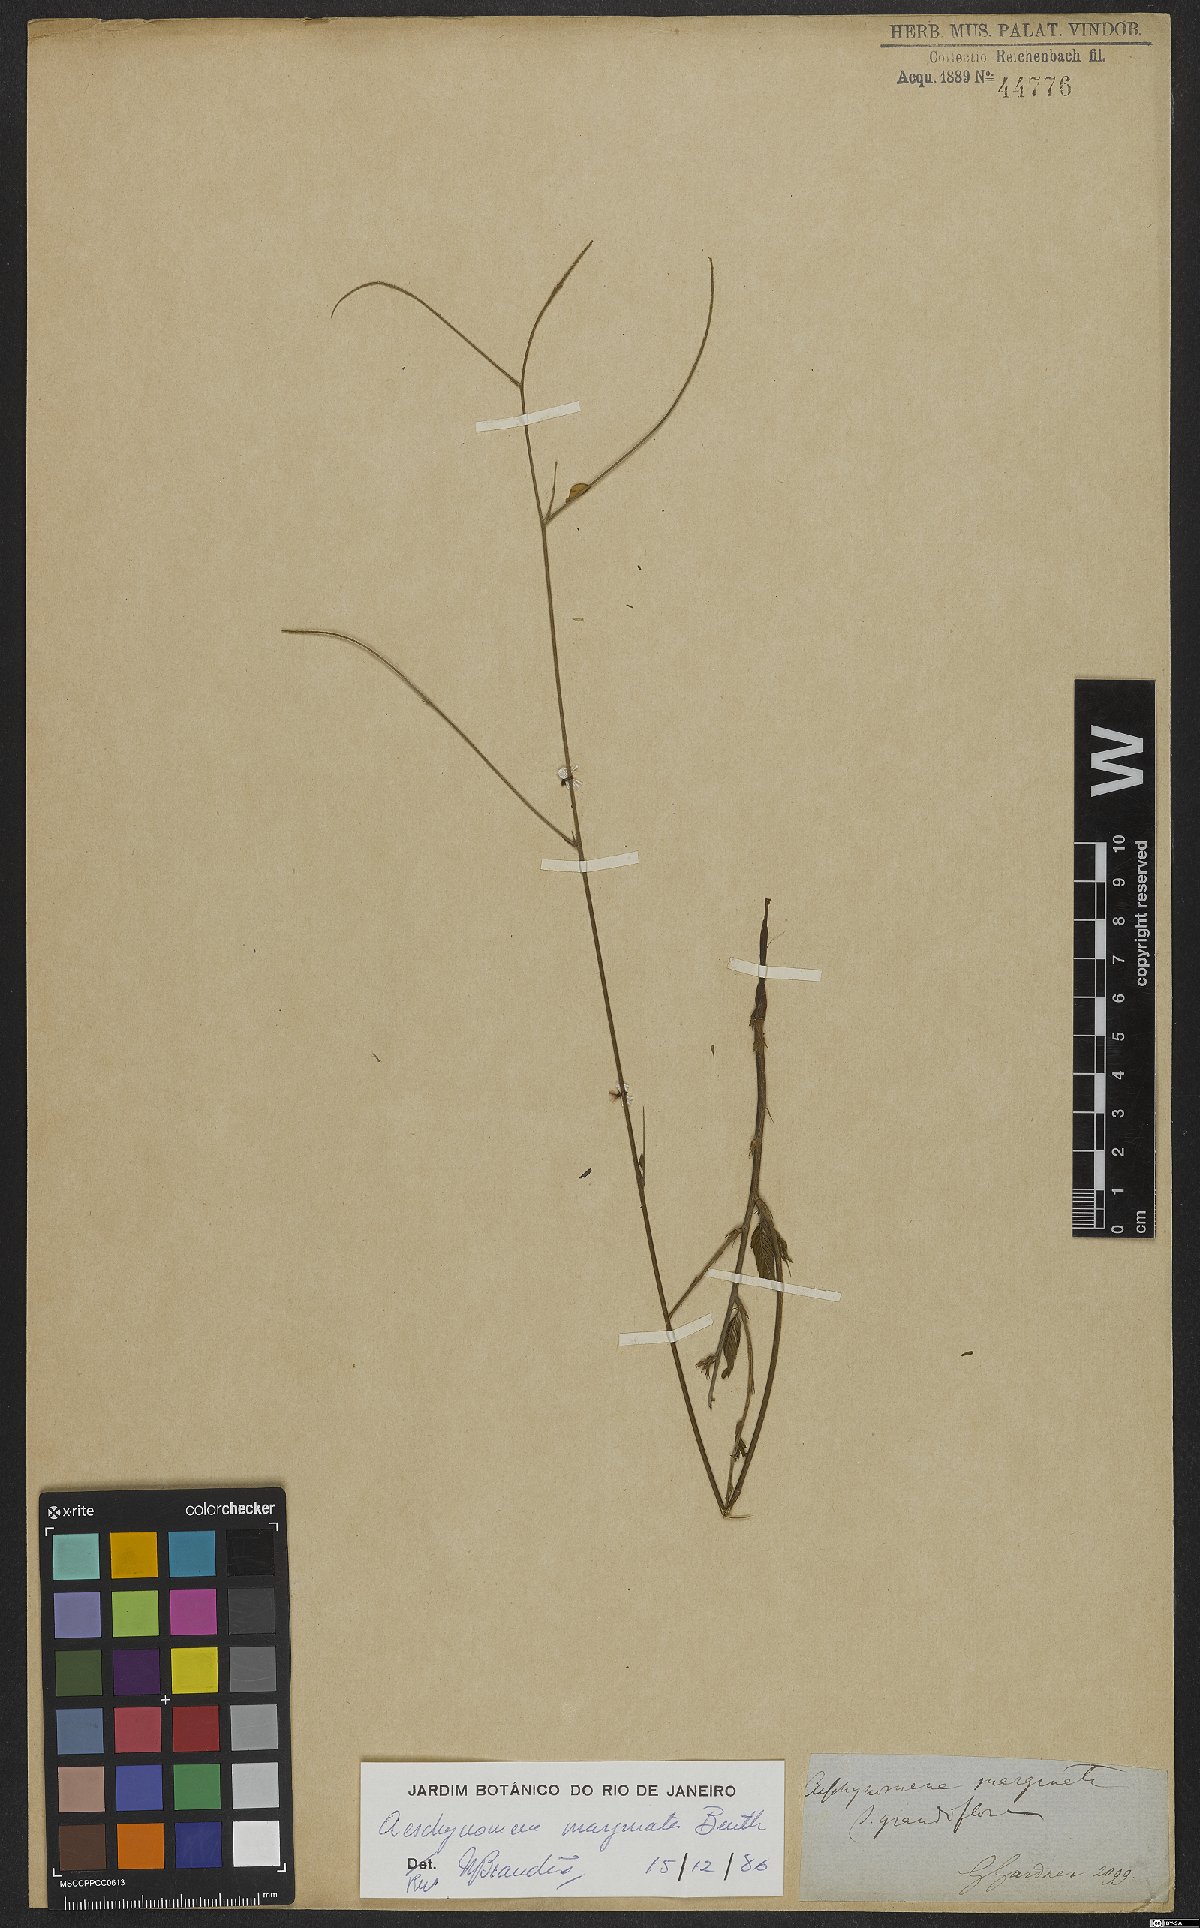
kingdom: Plantae
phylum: Tracheophyta
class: Magnoliopsida
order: Fabales
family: Fabaceae
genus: Ctenodon
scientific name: Ctenodon marginatus
